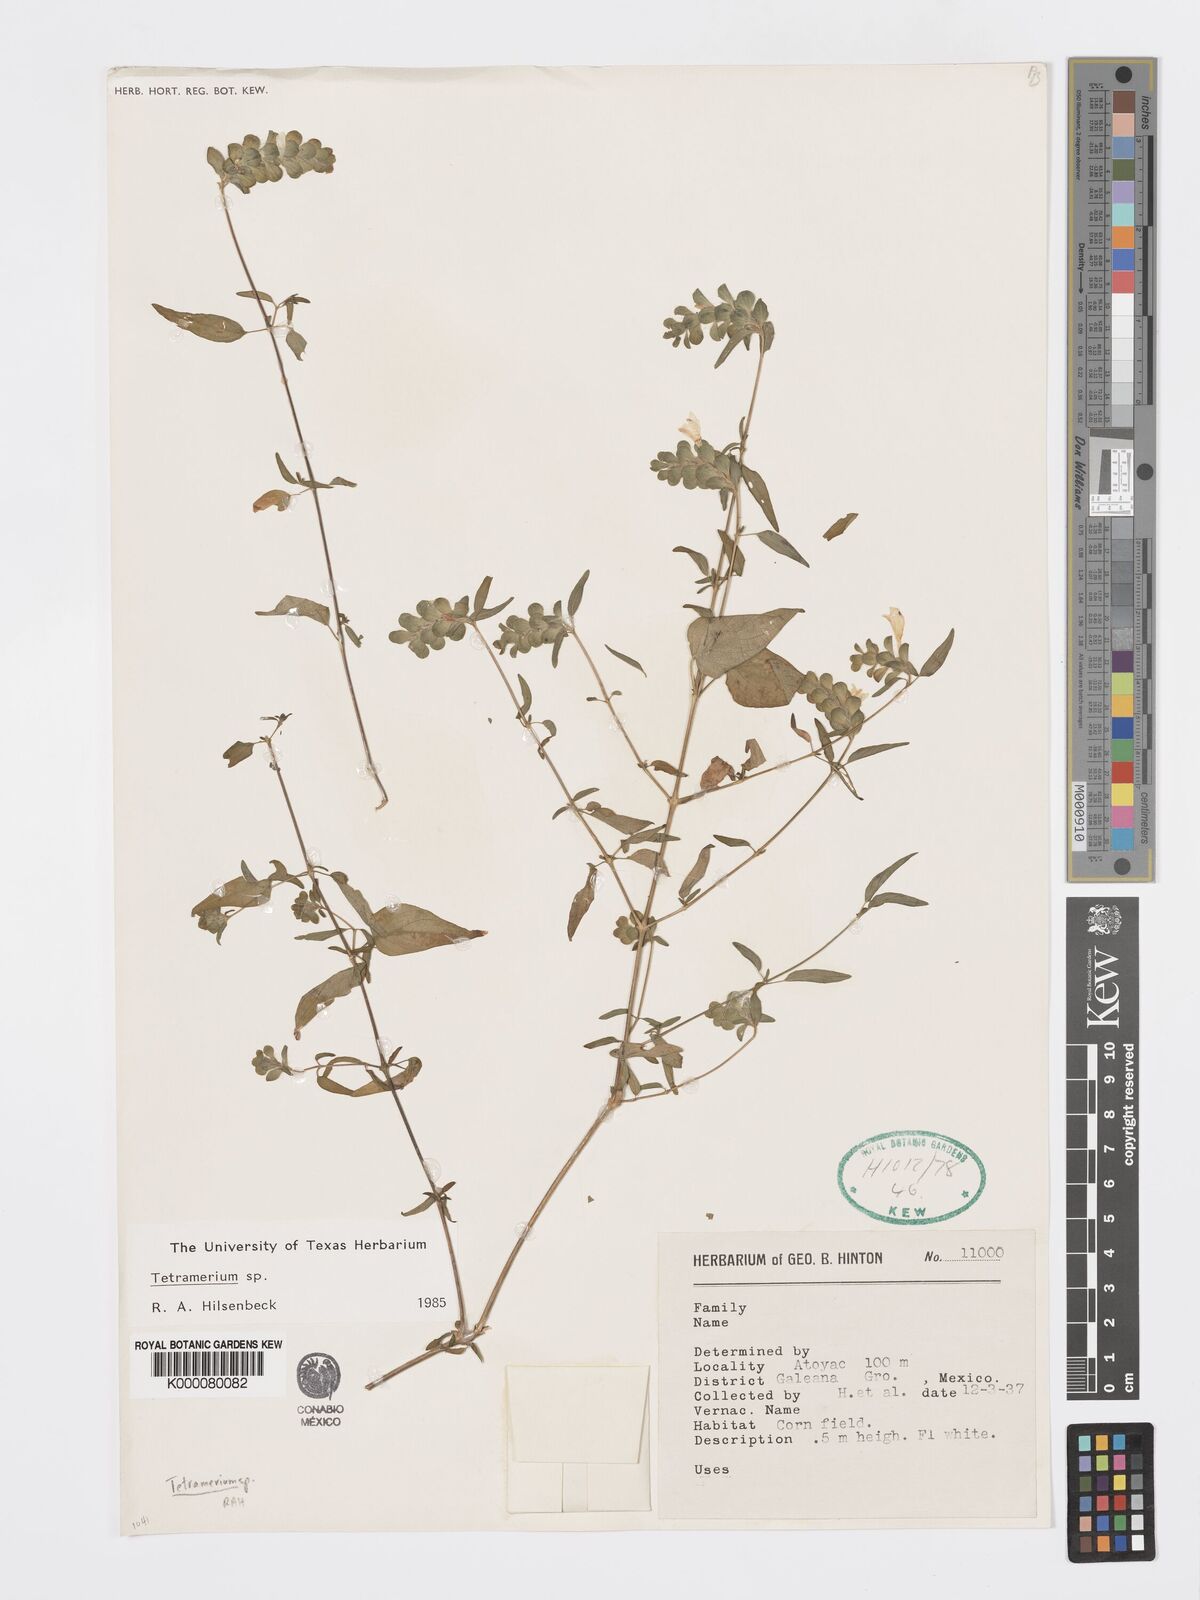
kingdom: Plantae
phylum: Tracheophyta
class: Magnoliopsida
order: Lamiales
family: Acanthaceae
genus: Tetramerium
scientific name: Tetramerium
